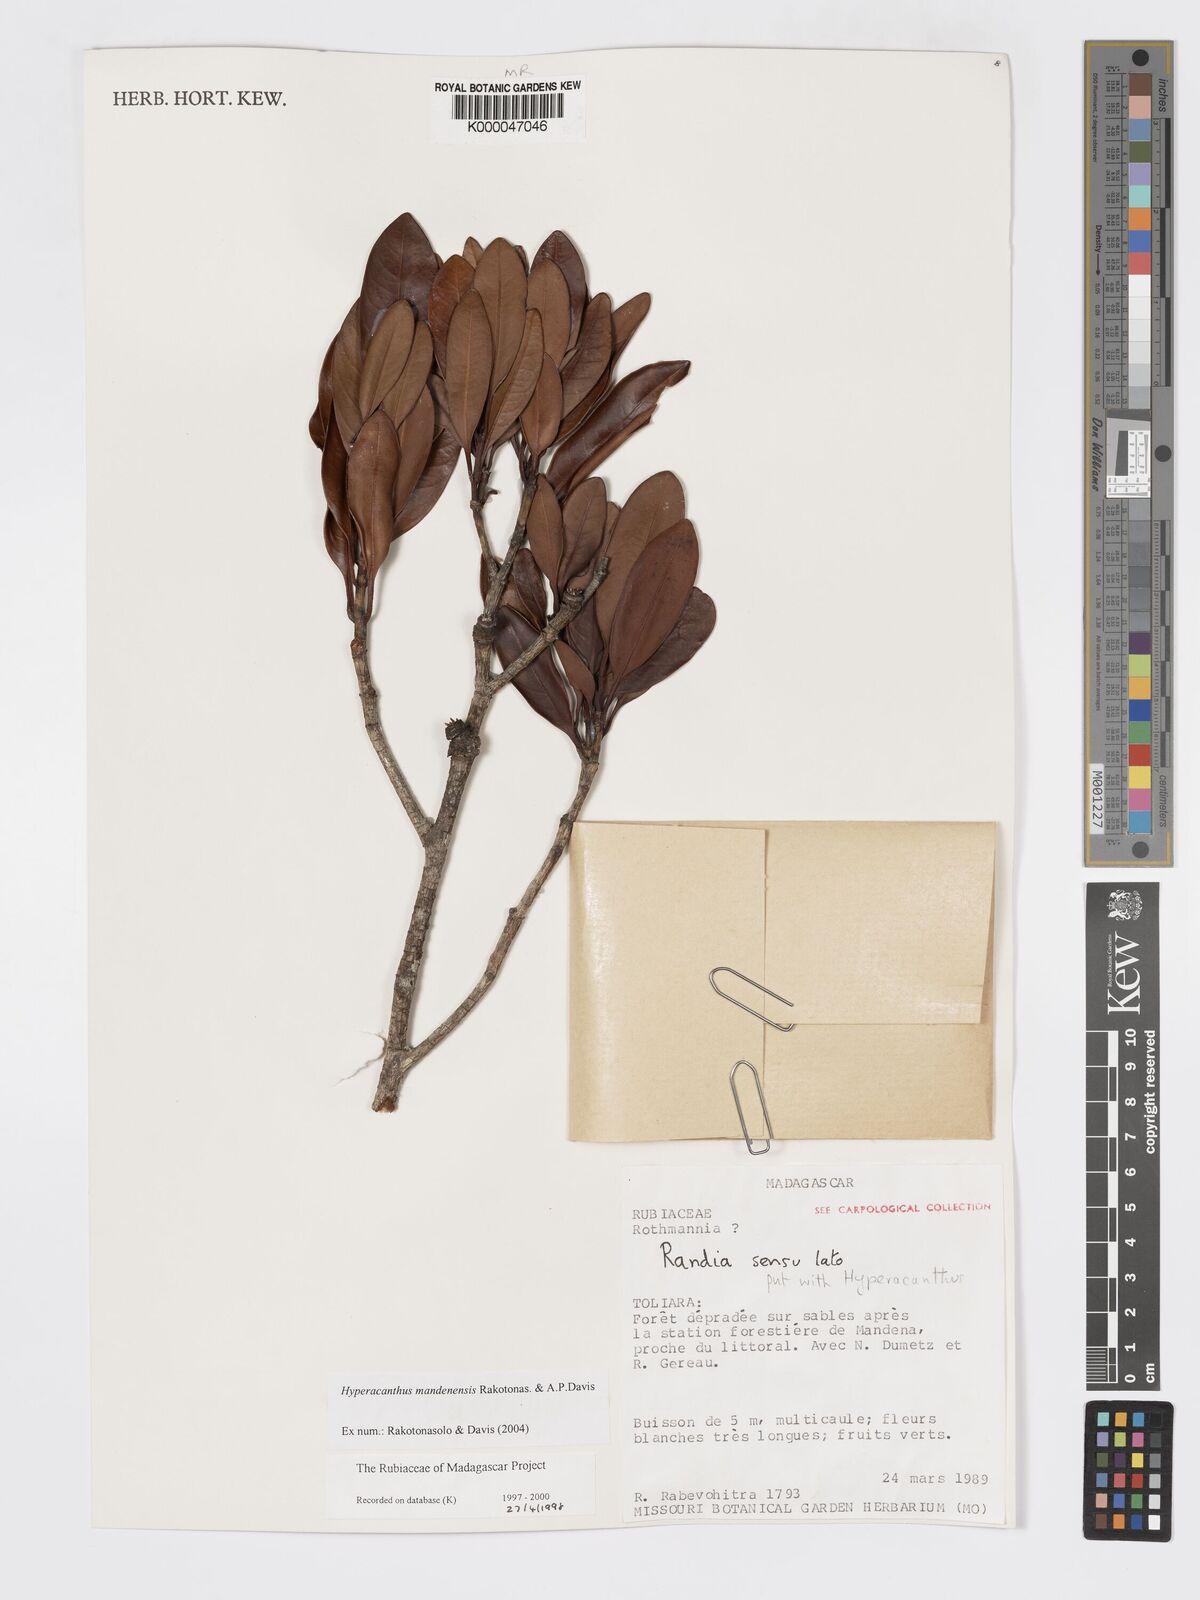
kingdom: Plantae
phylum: Tracheophyta
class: Magnoliopsida
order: Gentianales
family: Rubiaceae
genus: Hyperacanthus
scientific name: Hyperacanthus mandenensis
